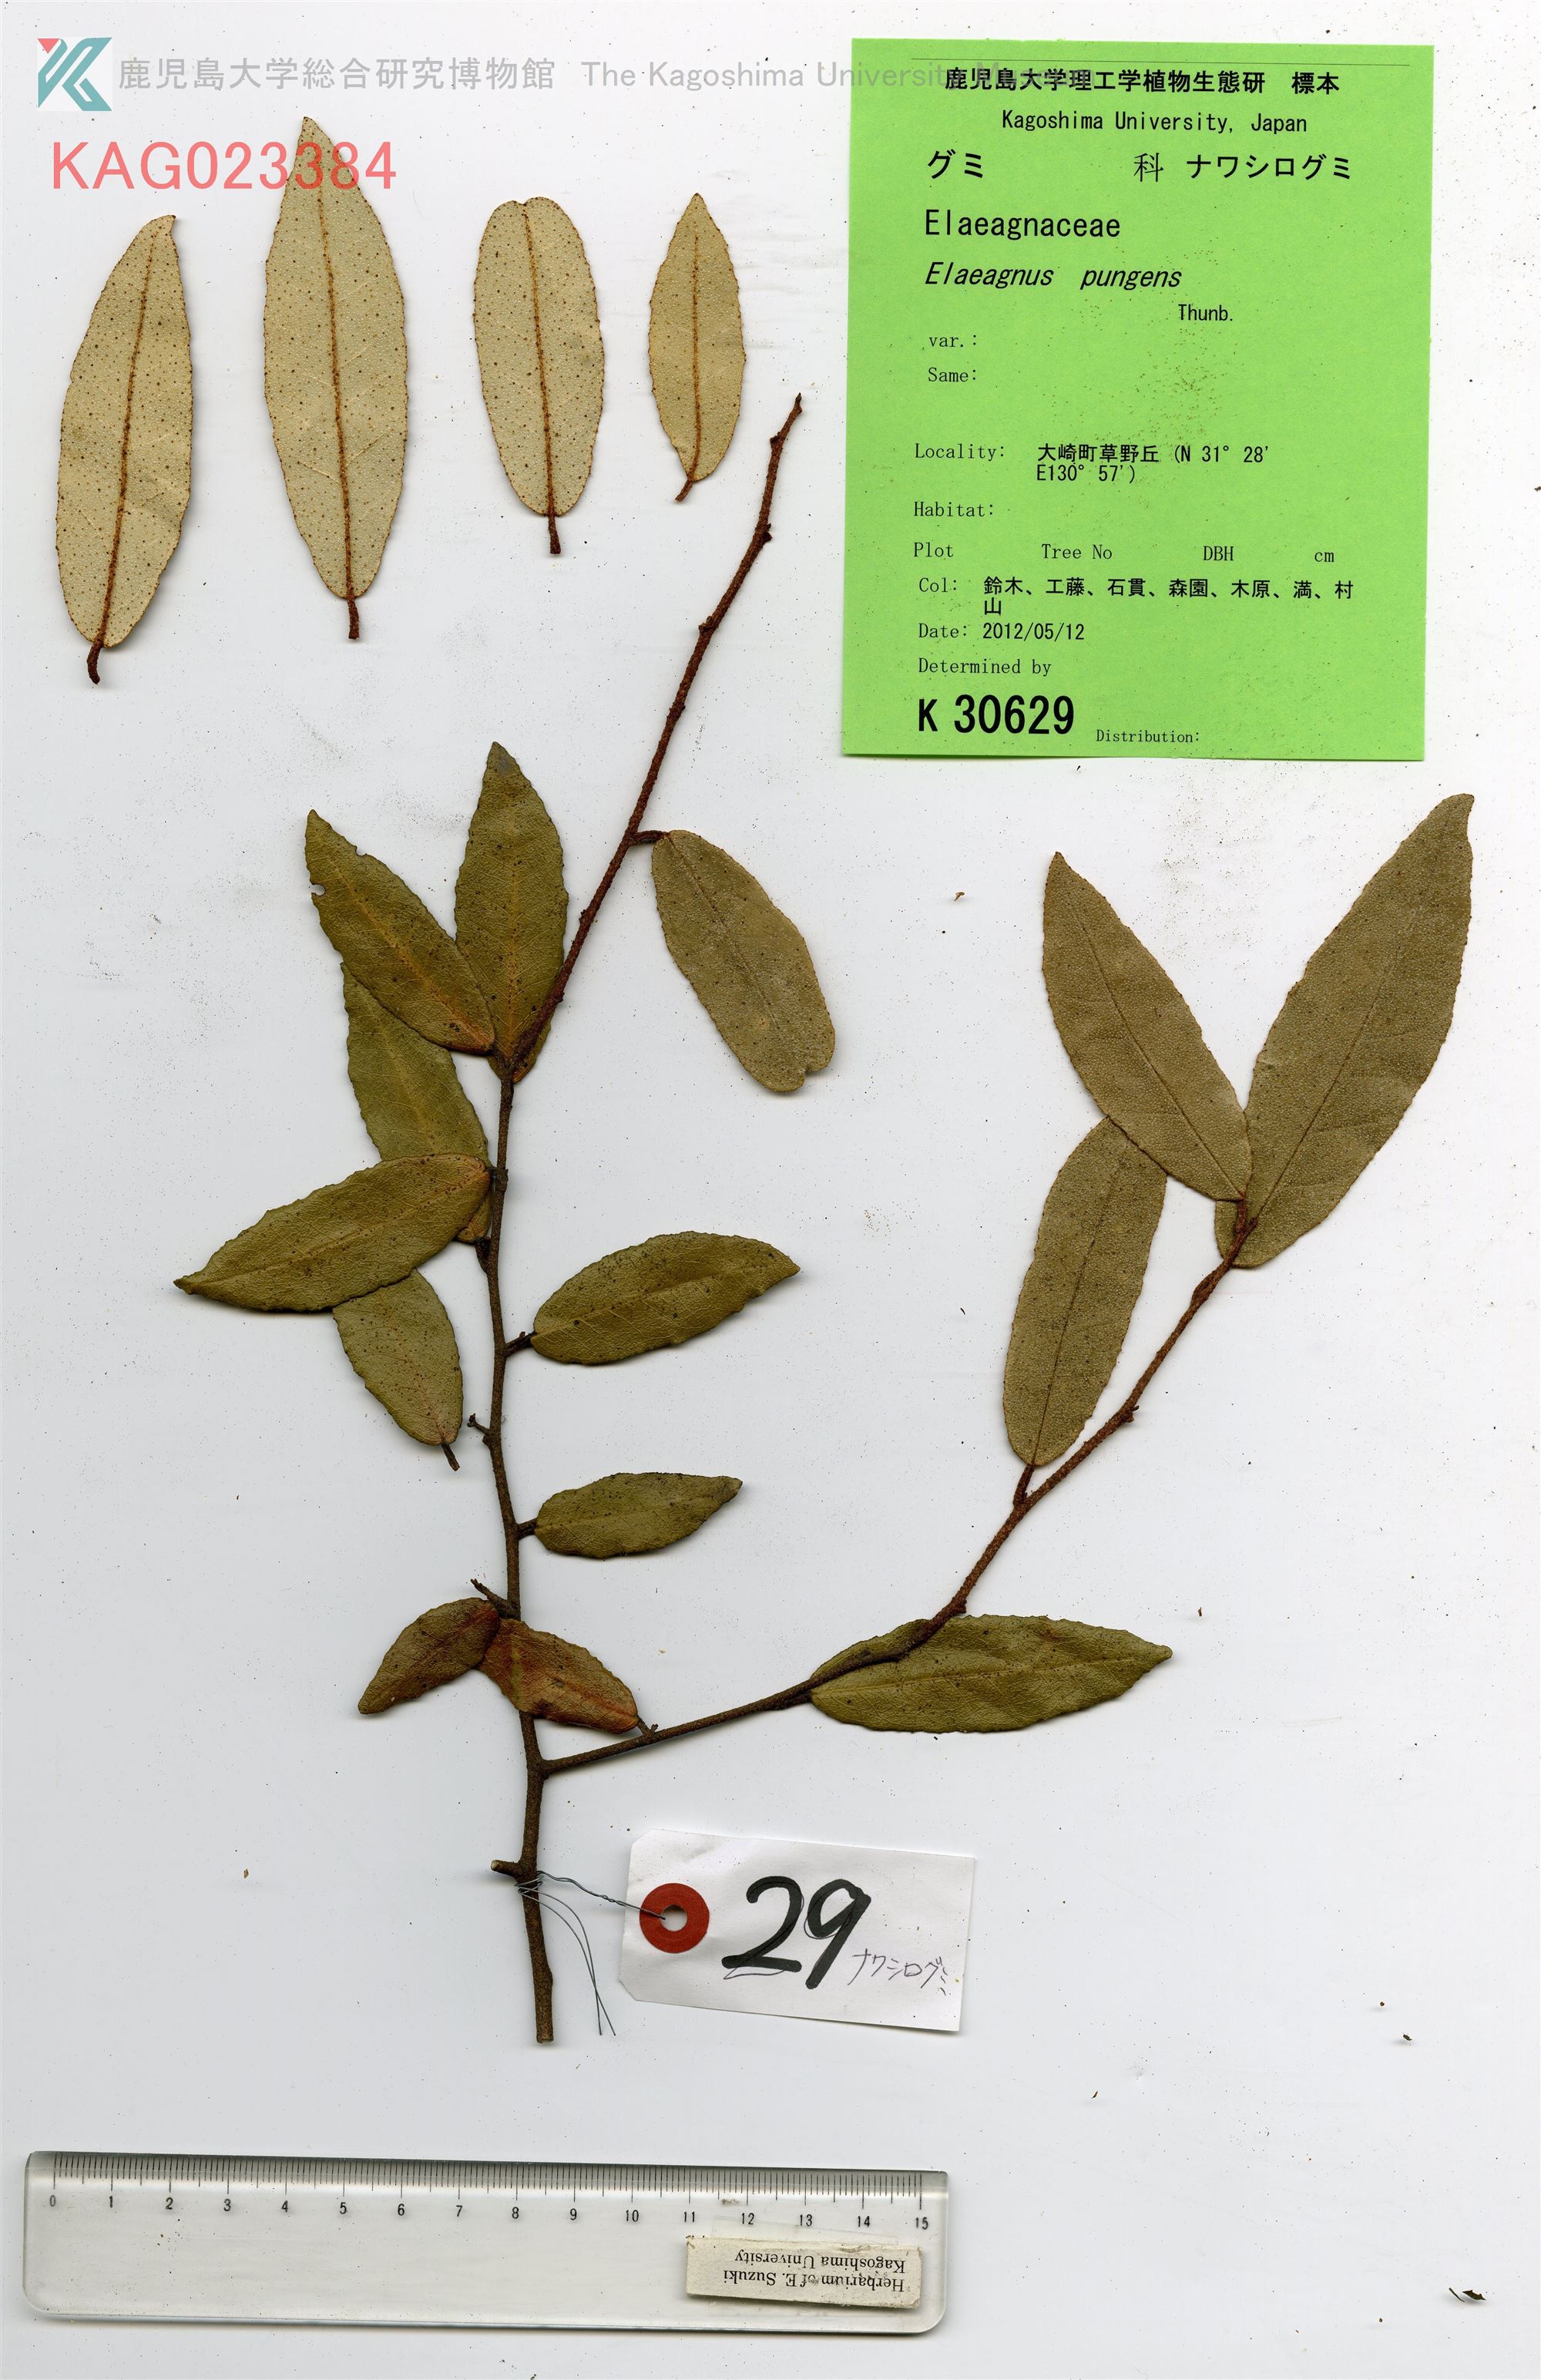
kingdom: Plantae
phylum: Tracheophyta
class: Magnoliopsida
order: Rosales
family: Elaeagnaceae
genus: Elaeagnus
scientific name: Elaeagnus pungens
